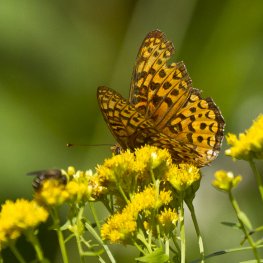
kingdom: Animalia
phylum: Arthropoda
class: Insecta
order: Lepidoptera
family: Nymphalidae
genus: Speyeria
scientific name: Speyeria atlantis
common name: Atlantis Fritillary
